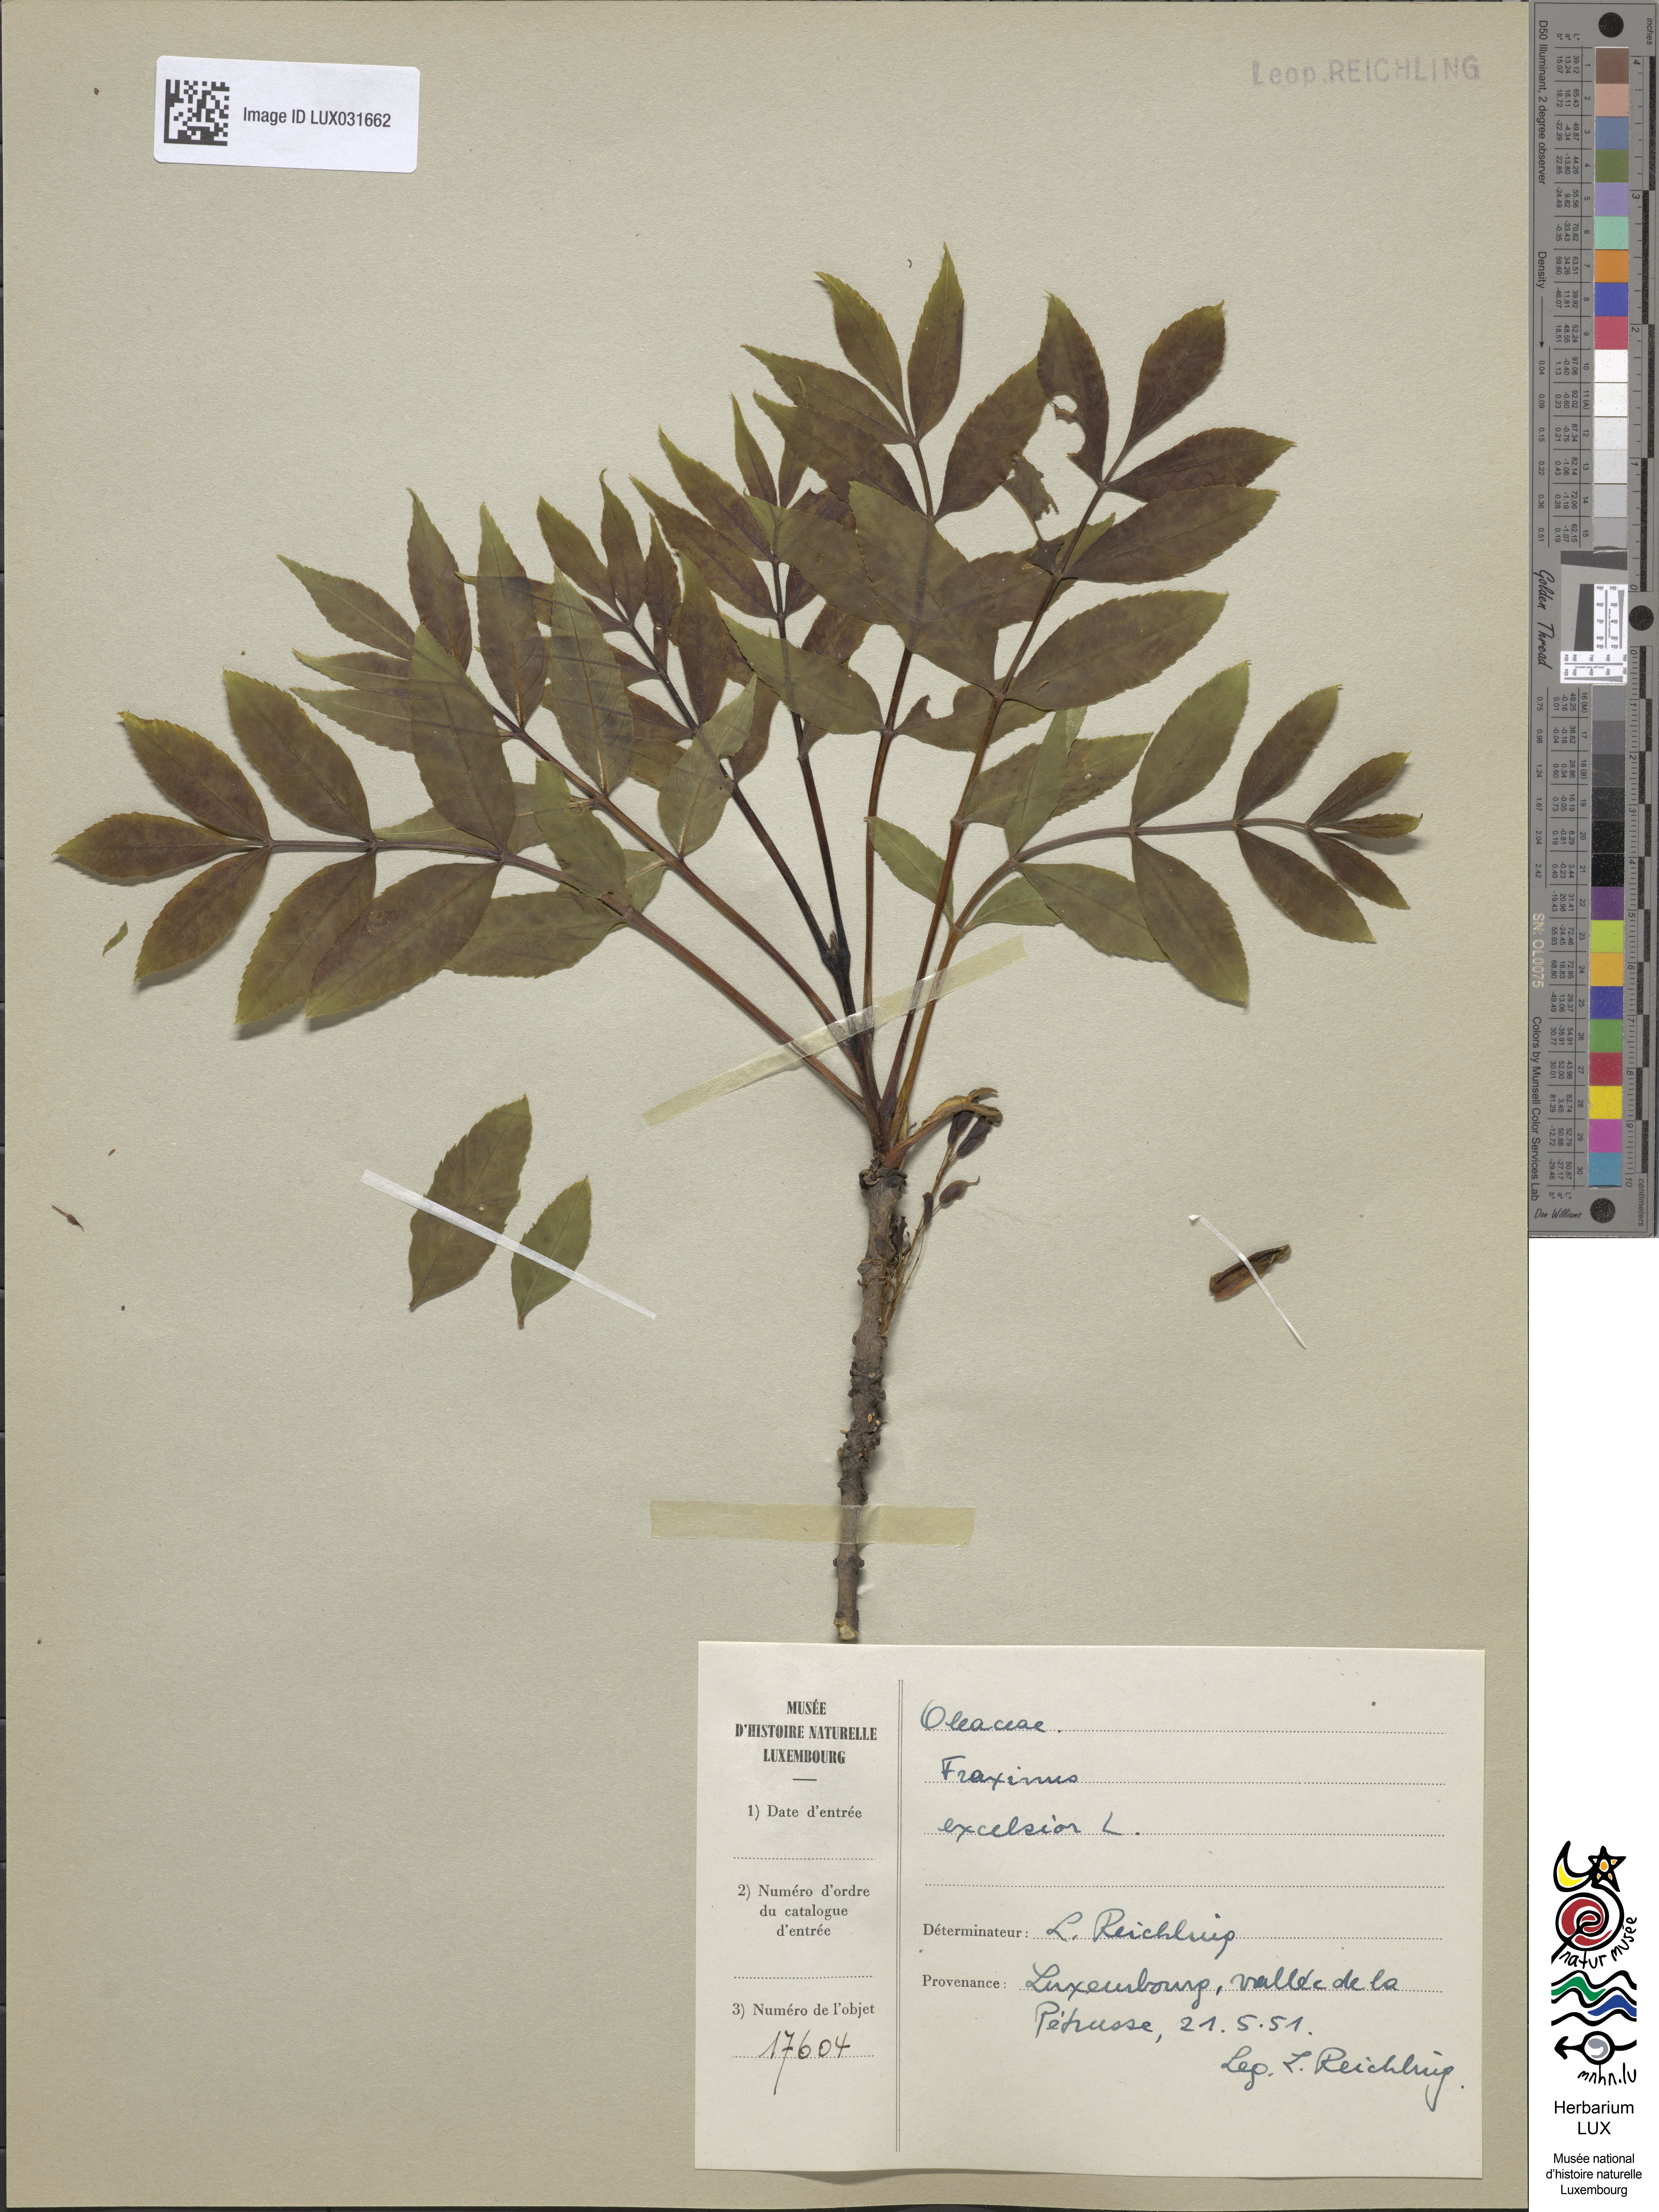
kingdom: Plantae
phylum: Tracheophyta
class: Magnoliopsida
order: Lamiales
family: Oleaceae
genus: Fraxinus
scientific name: Fraxinus excelsior
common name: European ash
